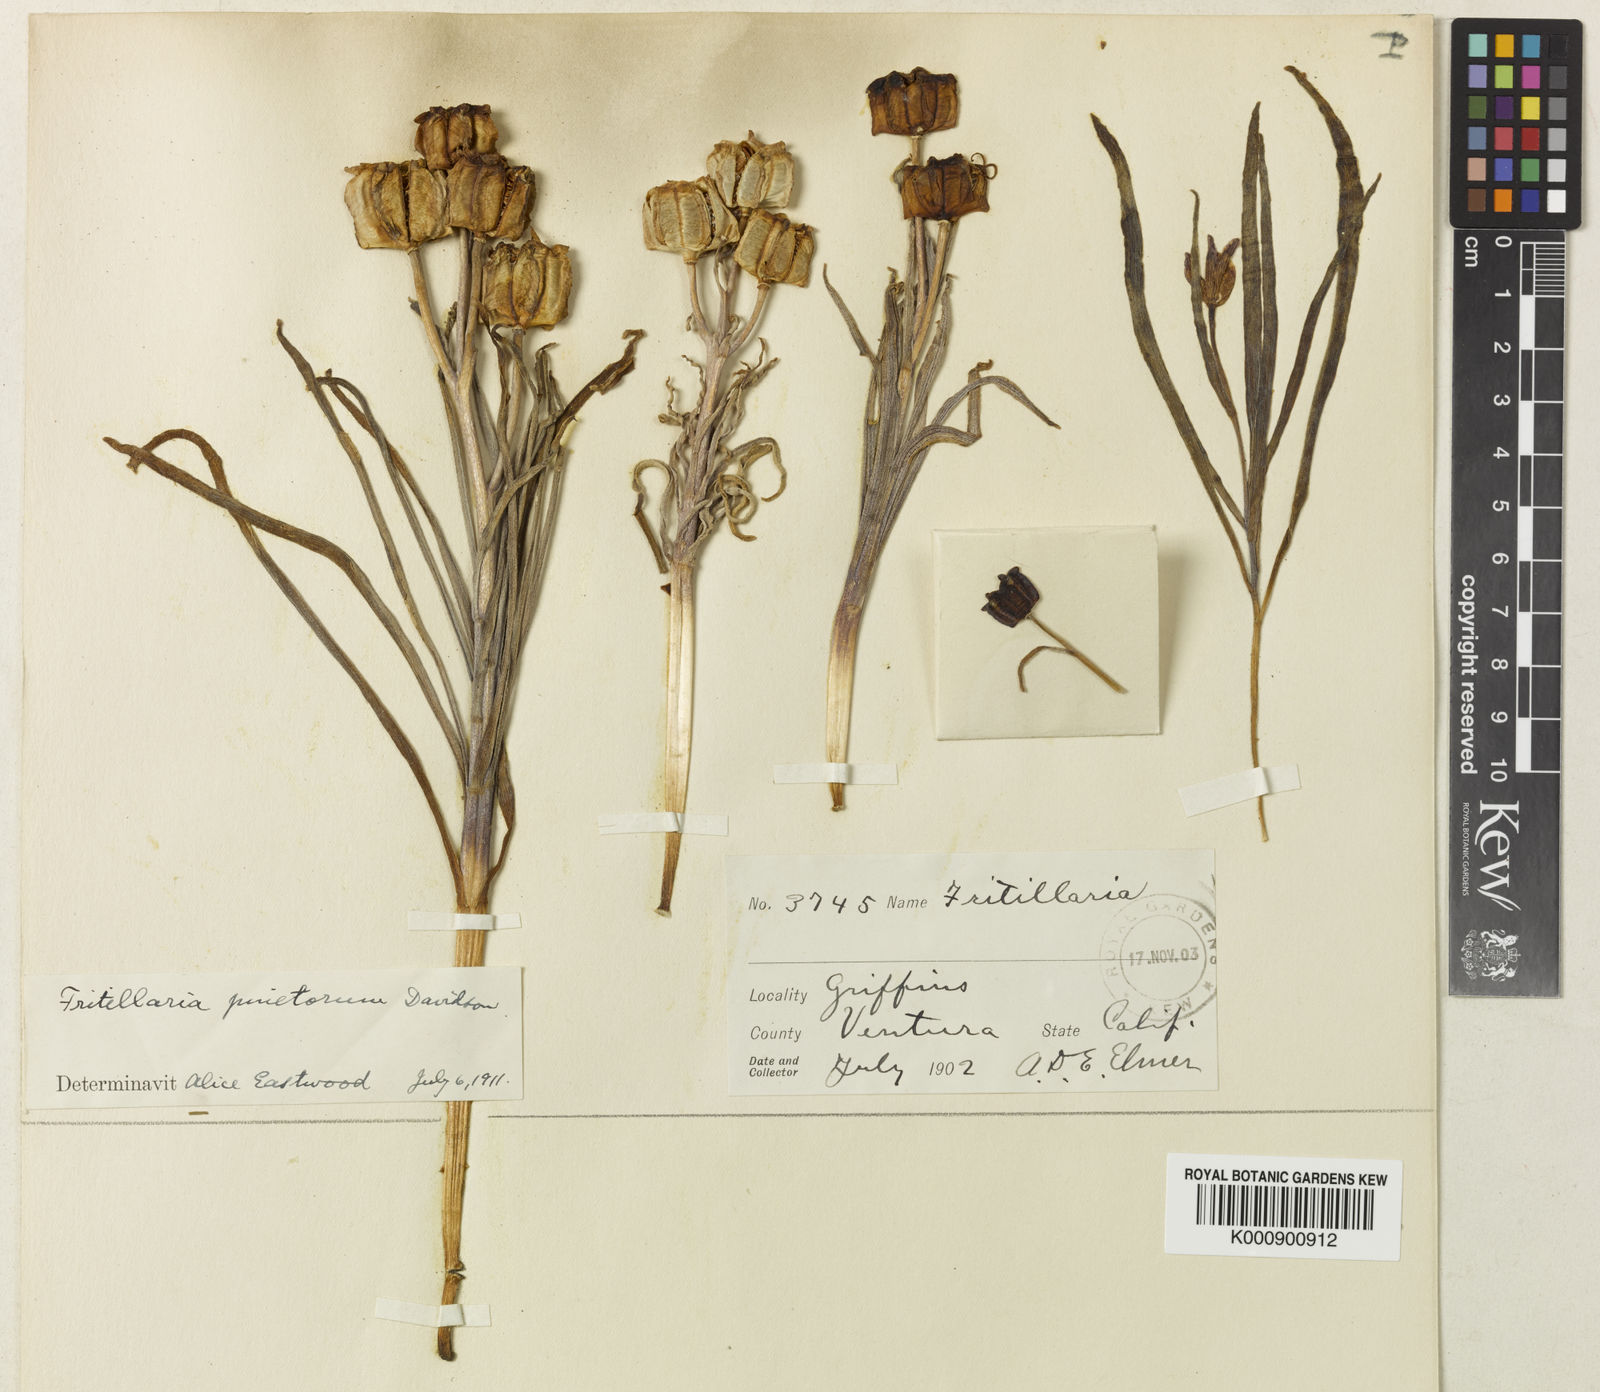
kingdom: Plantae
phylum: Tracheophyta
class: Liliopsida
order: Liliales
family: Liliaceae
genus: Fritillaria
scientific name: Fritillaria pinetorum
